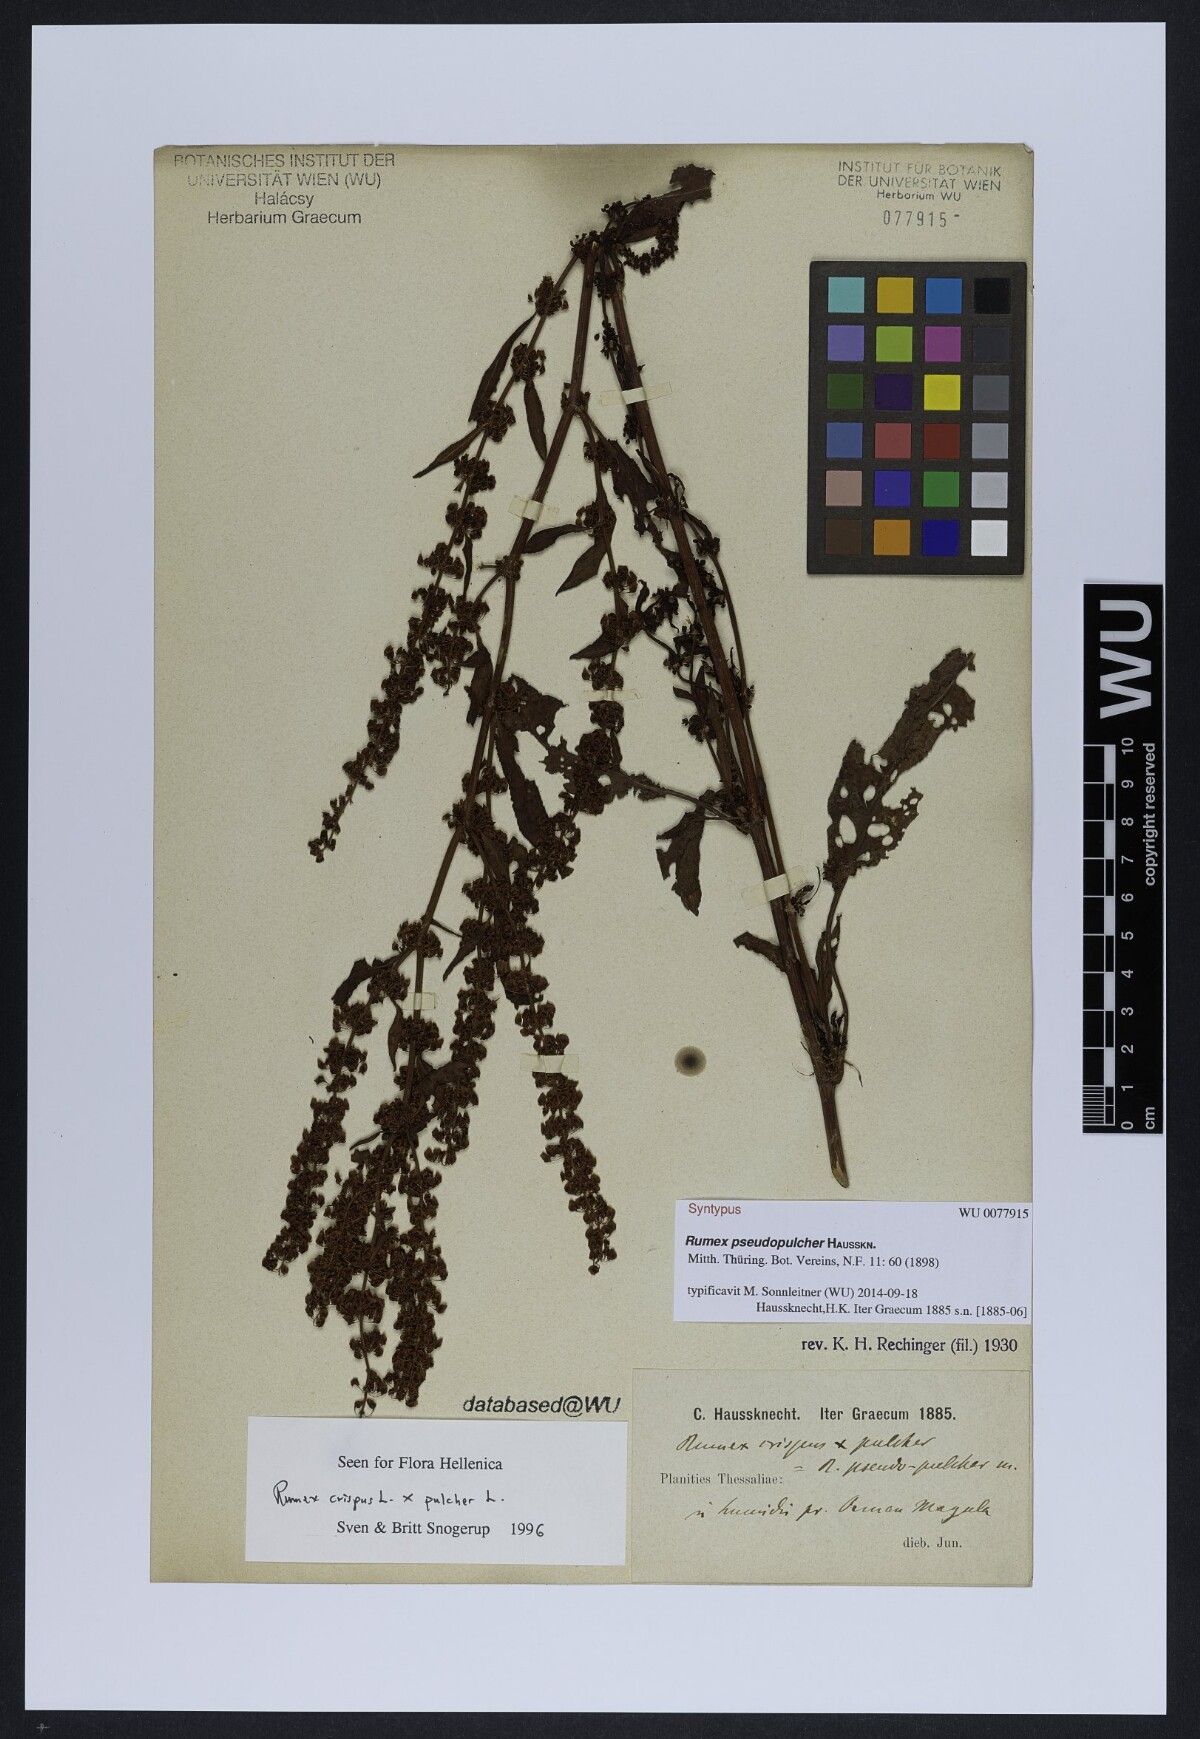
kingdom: Plantae
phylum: Tracheophyta
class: Magnoliopsida
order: Caryophyllales
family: Polygonaceae
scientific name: Polygonaceae
